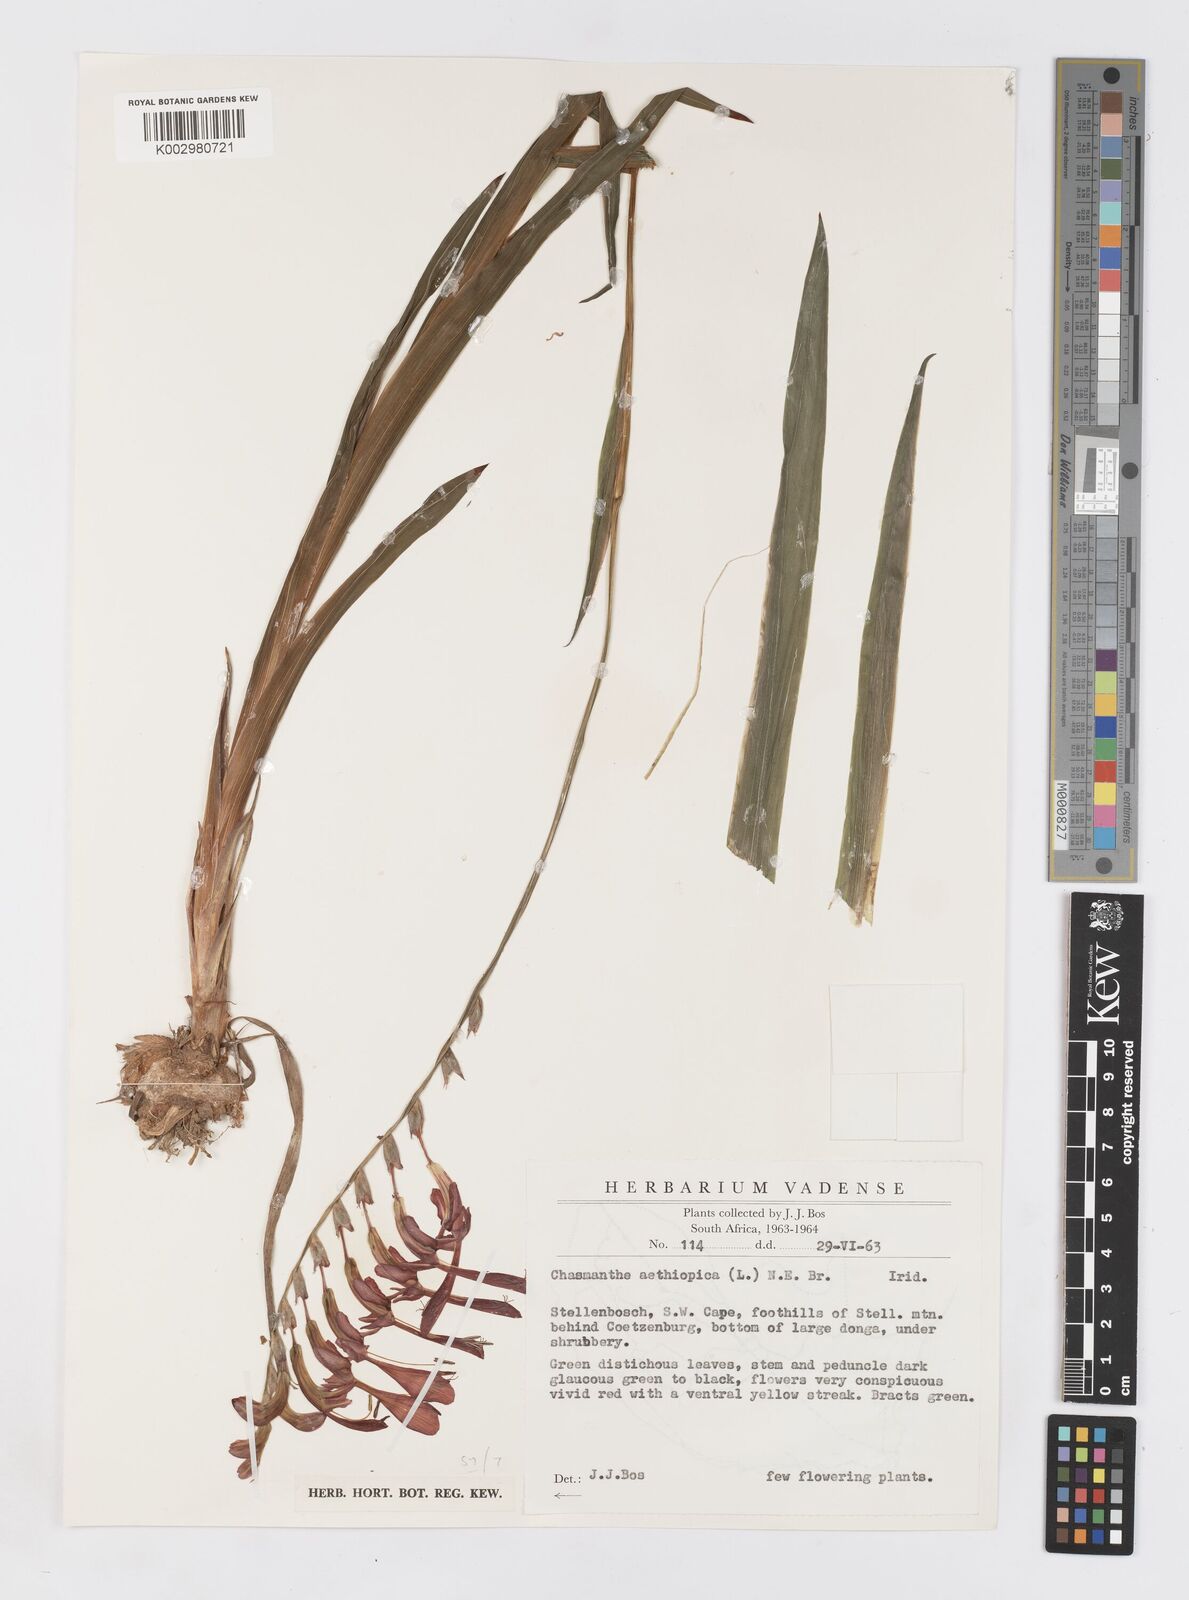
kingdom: Plantae
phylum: Tracheophyta
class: Liliopsida
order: Asparagales
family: Iridaceae
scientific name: Iridaceae
